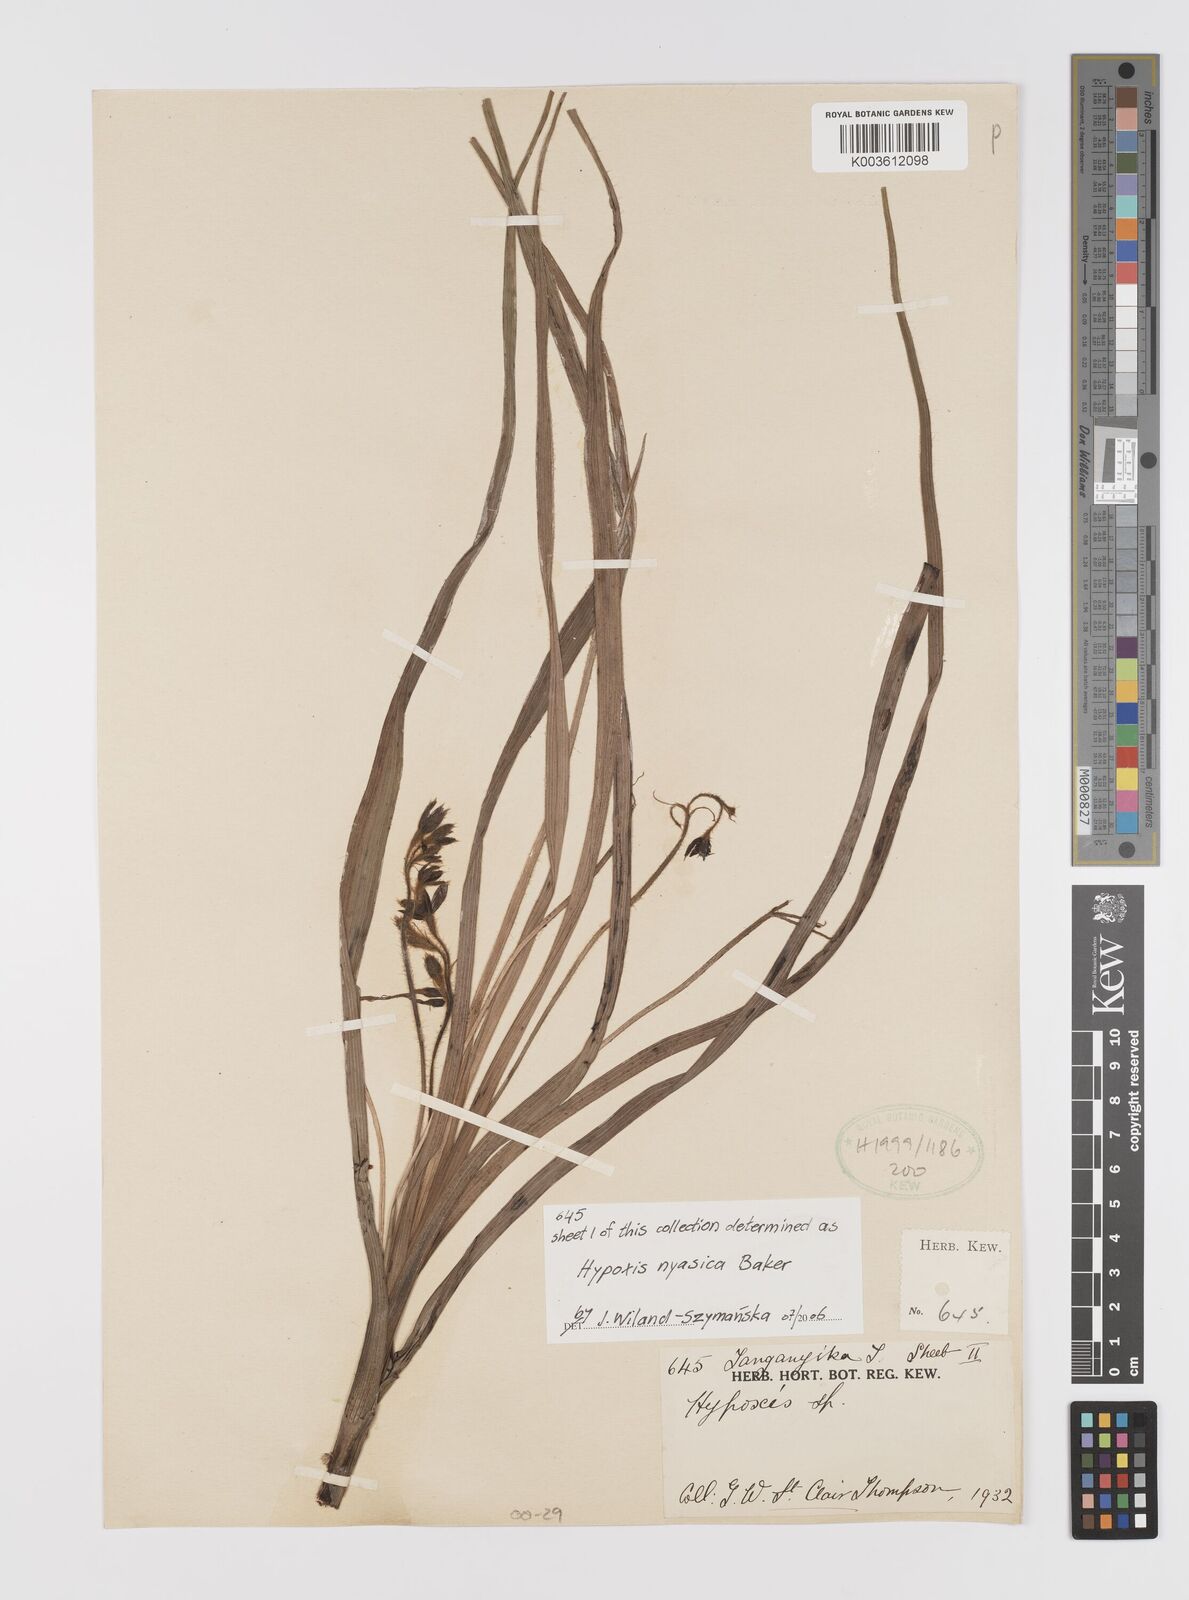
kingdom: Plantae
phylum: Tracheophyta
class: Liliopsida
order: Asparagales
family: Hypoxidaceae
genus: Hypoxis
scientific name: Hypoxis nyasica
